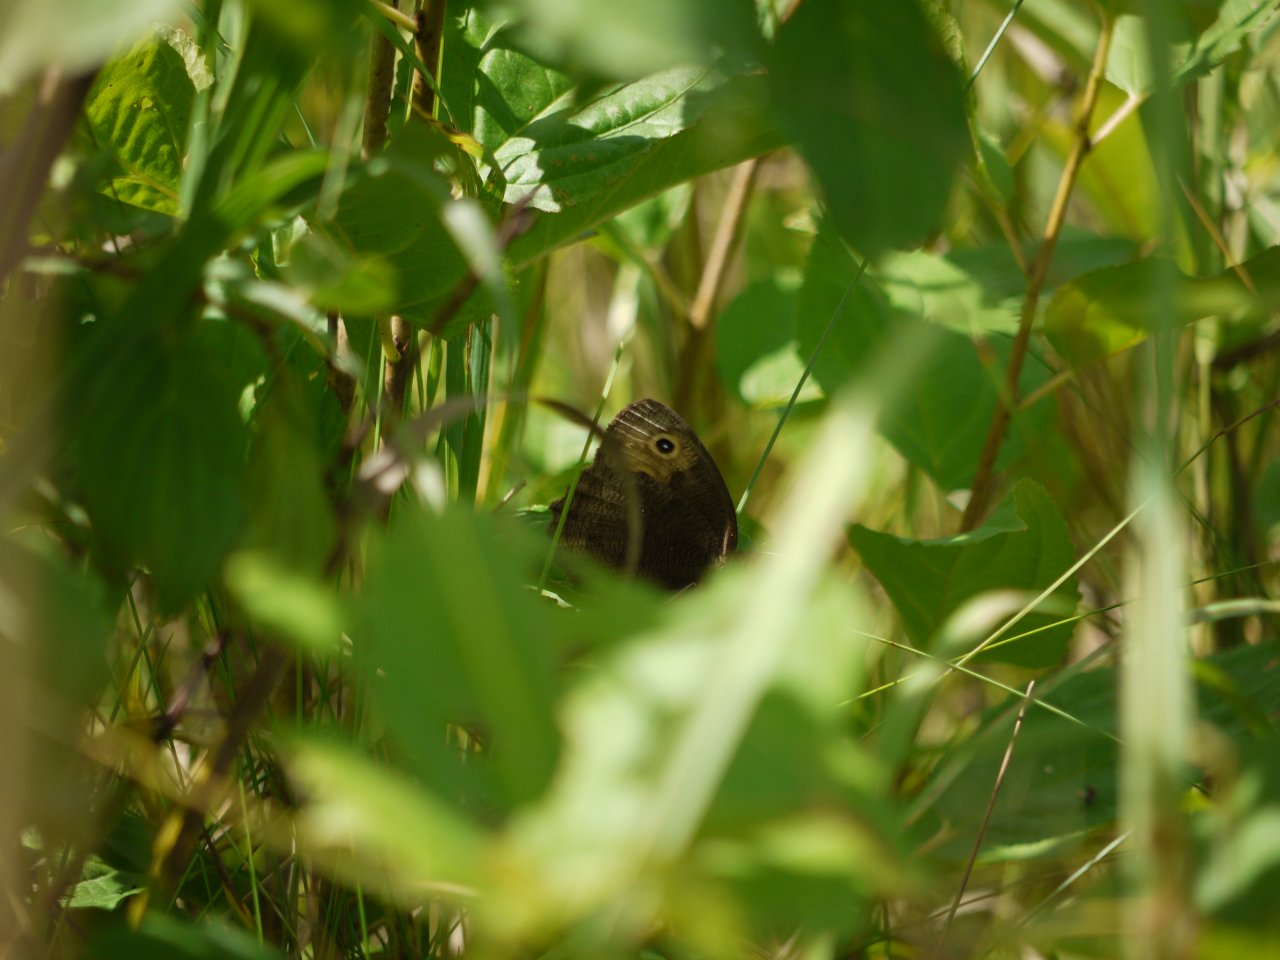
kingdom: Animalia
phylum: Arthropoda
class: Insecta
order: Lepidoptera
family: Nymphalidae
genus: Cercyonis
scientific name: Cercyonis pegala
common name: Common Wood-Nymph
